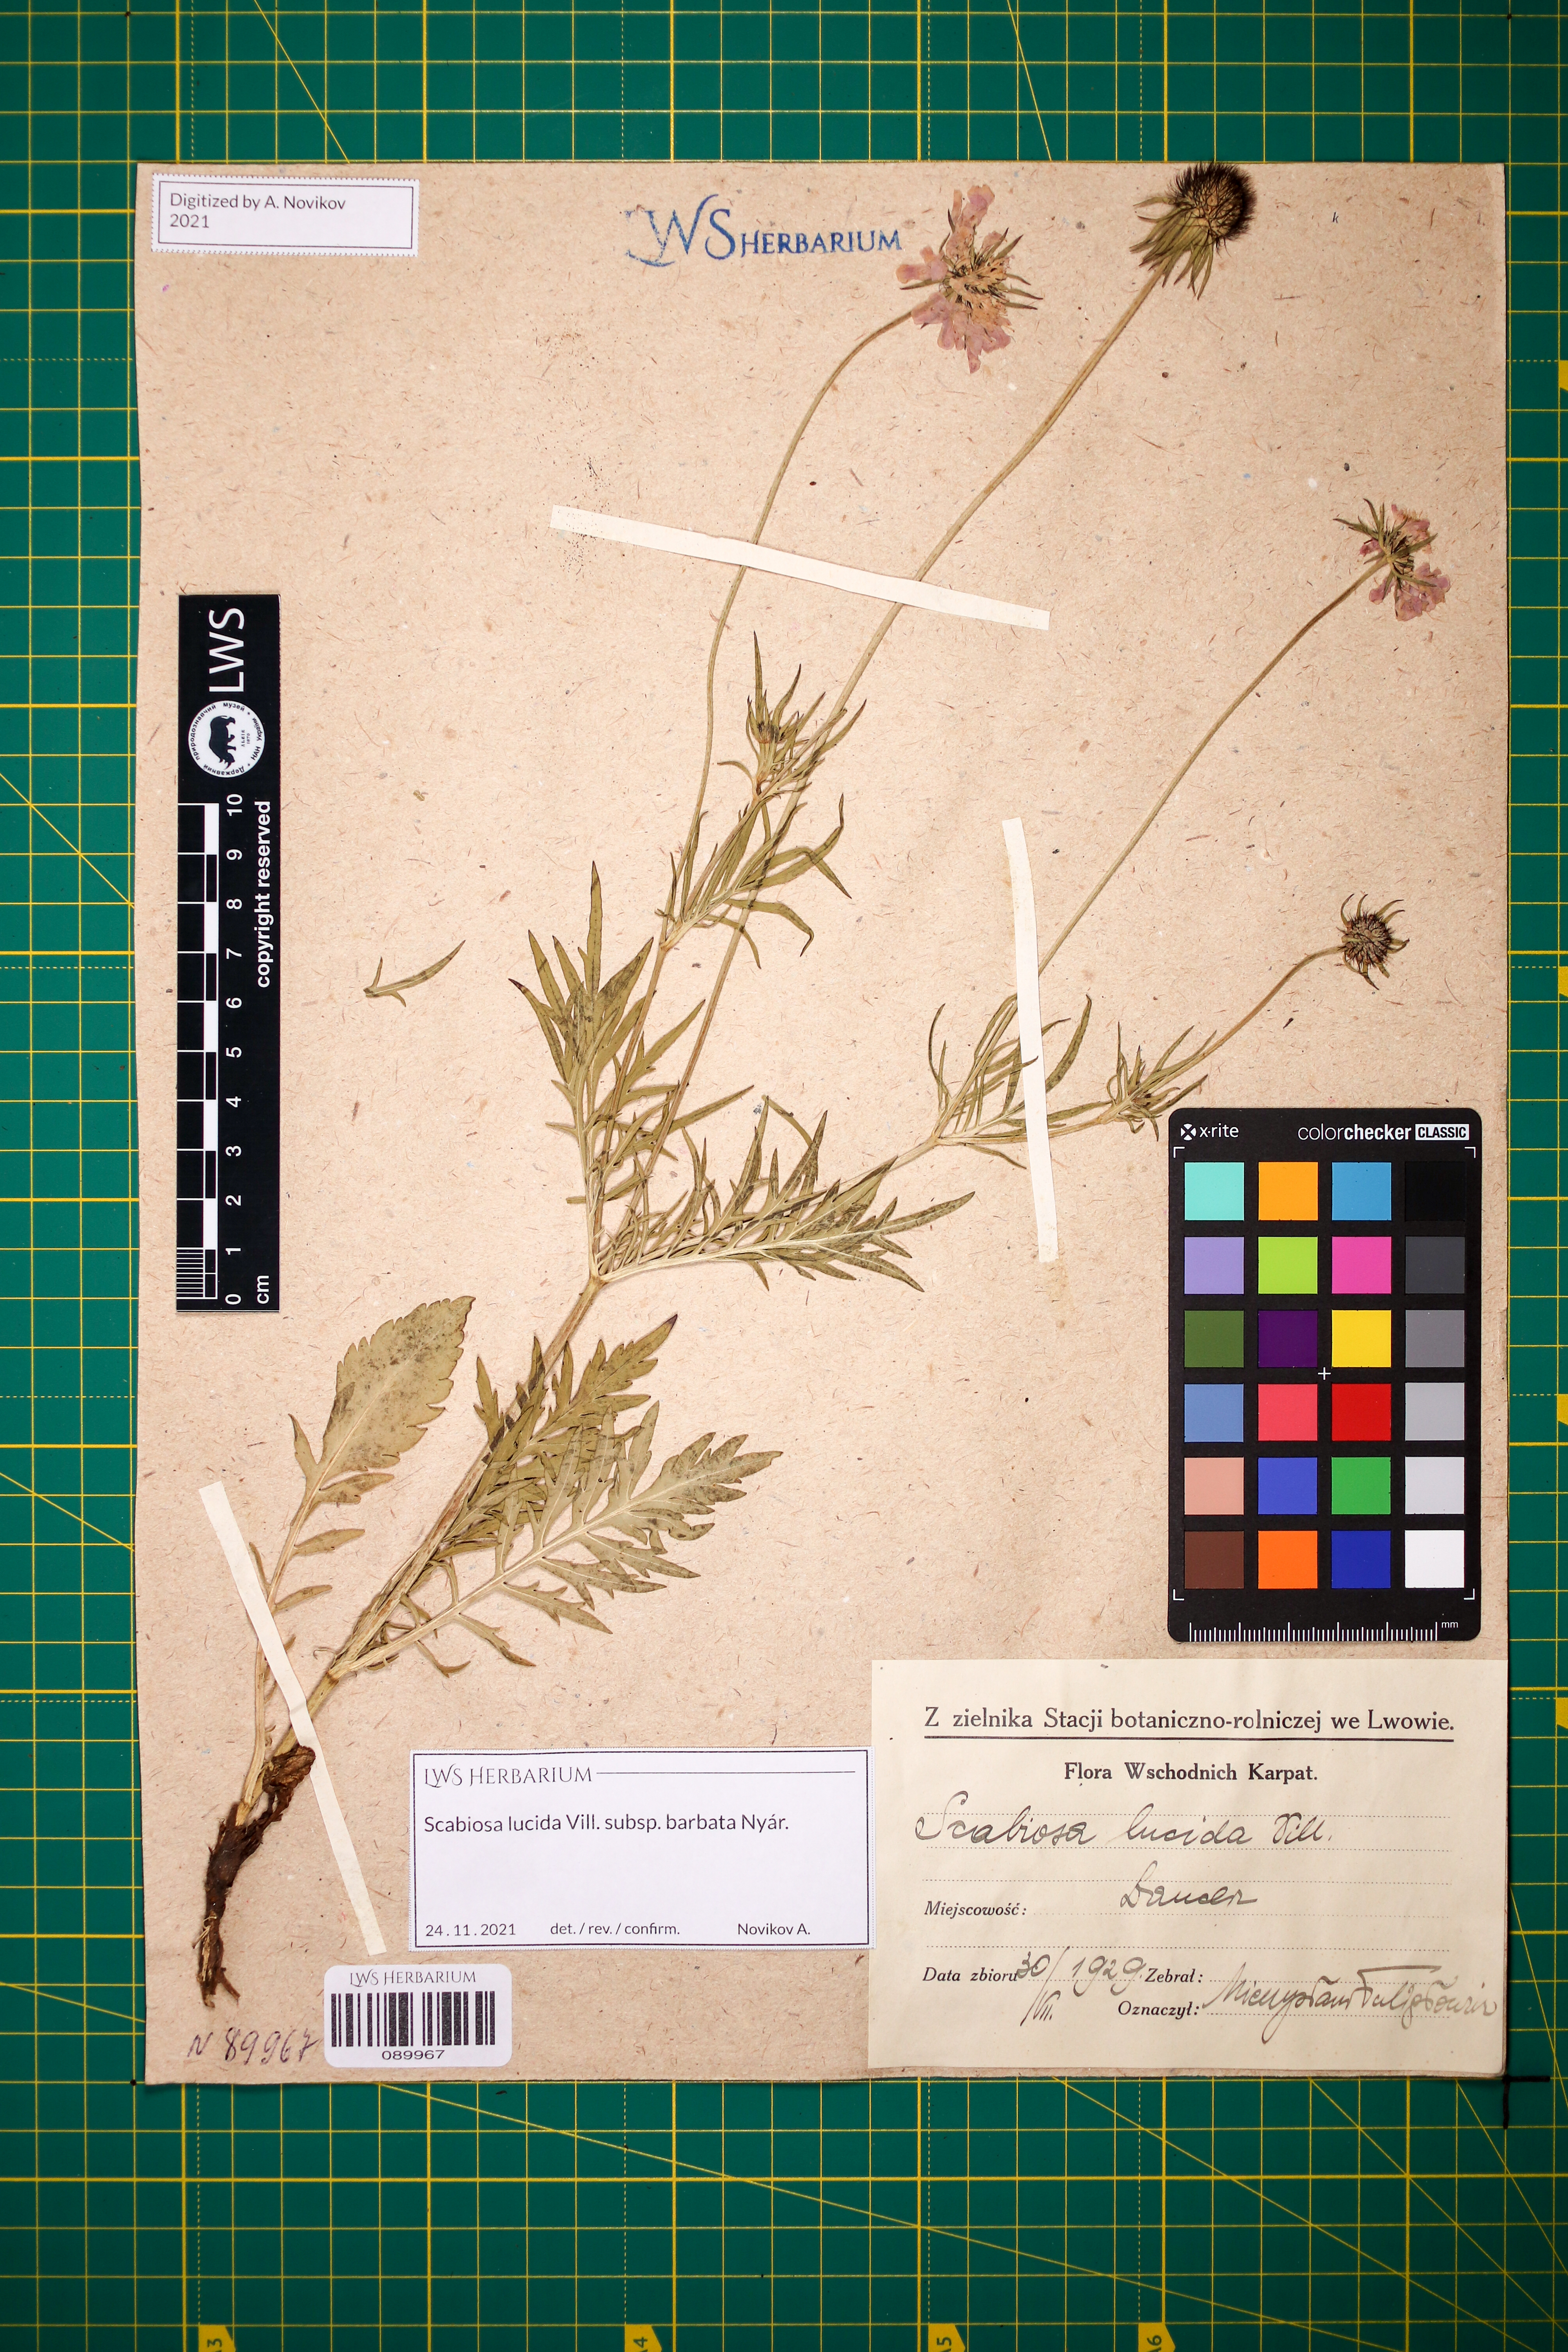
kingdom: Plantae
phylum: Tracheophyta
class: Magnoliopsida
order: Dipsacales
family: Caprifoliaceae
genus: Scabiosa
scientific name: Scabiosa lucida
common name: Shining scabious
